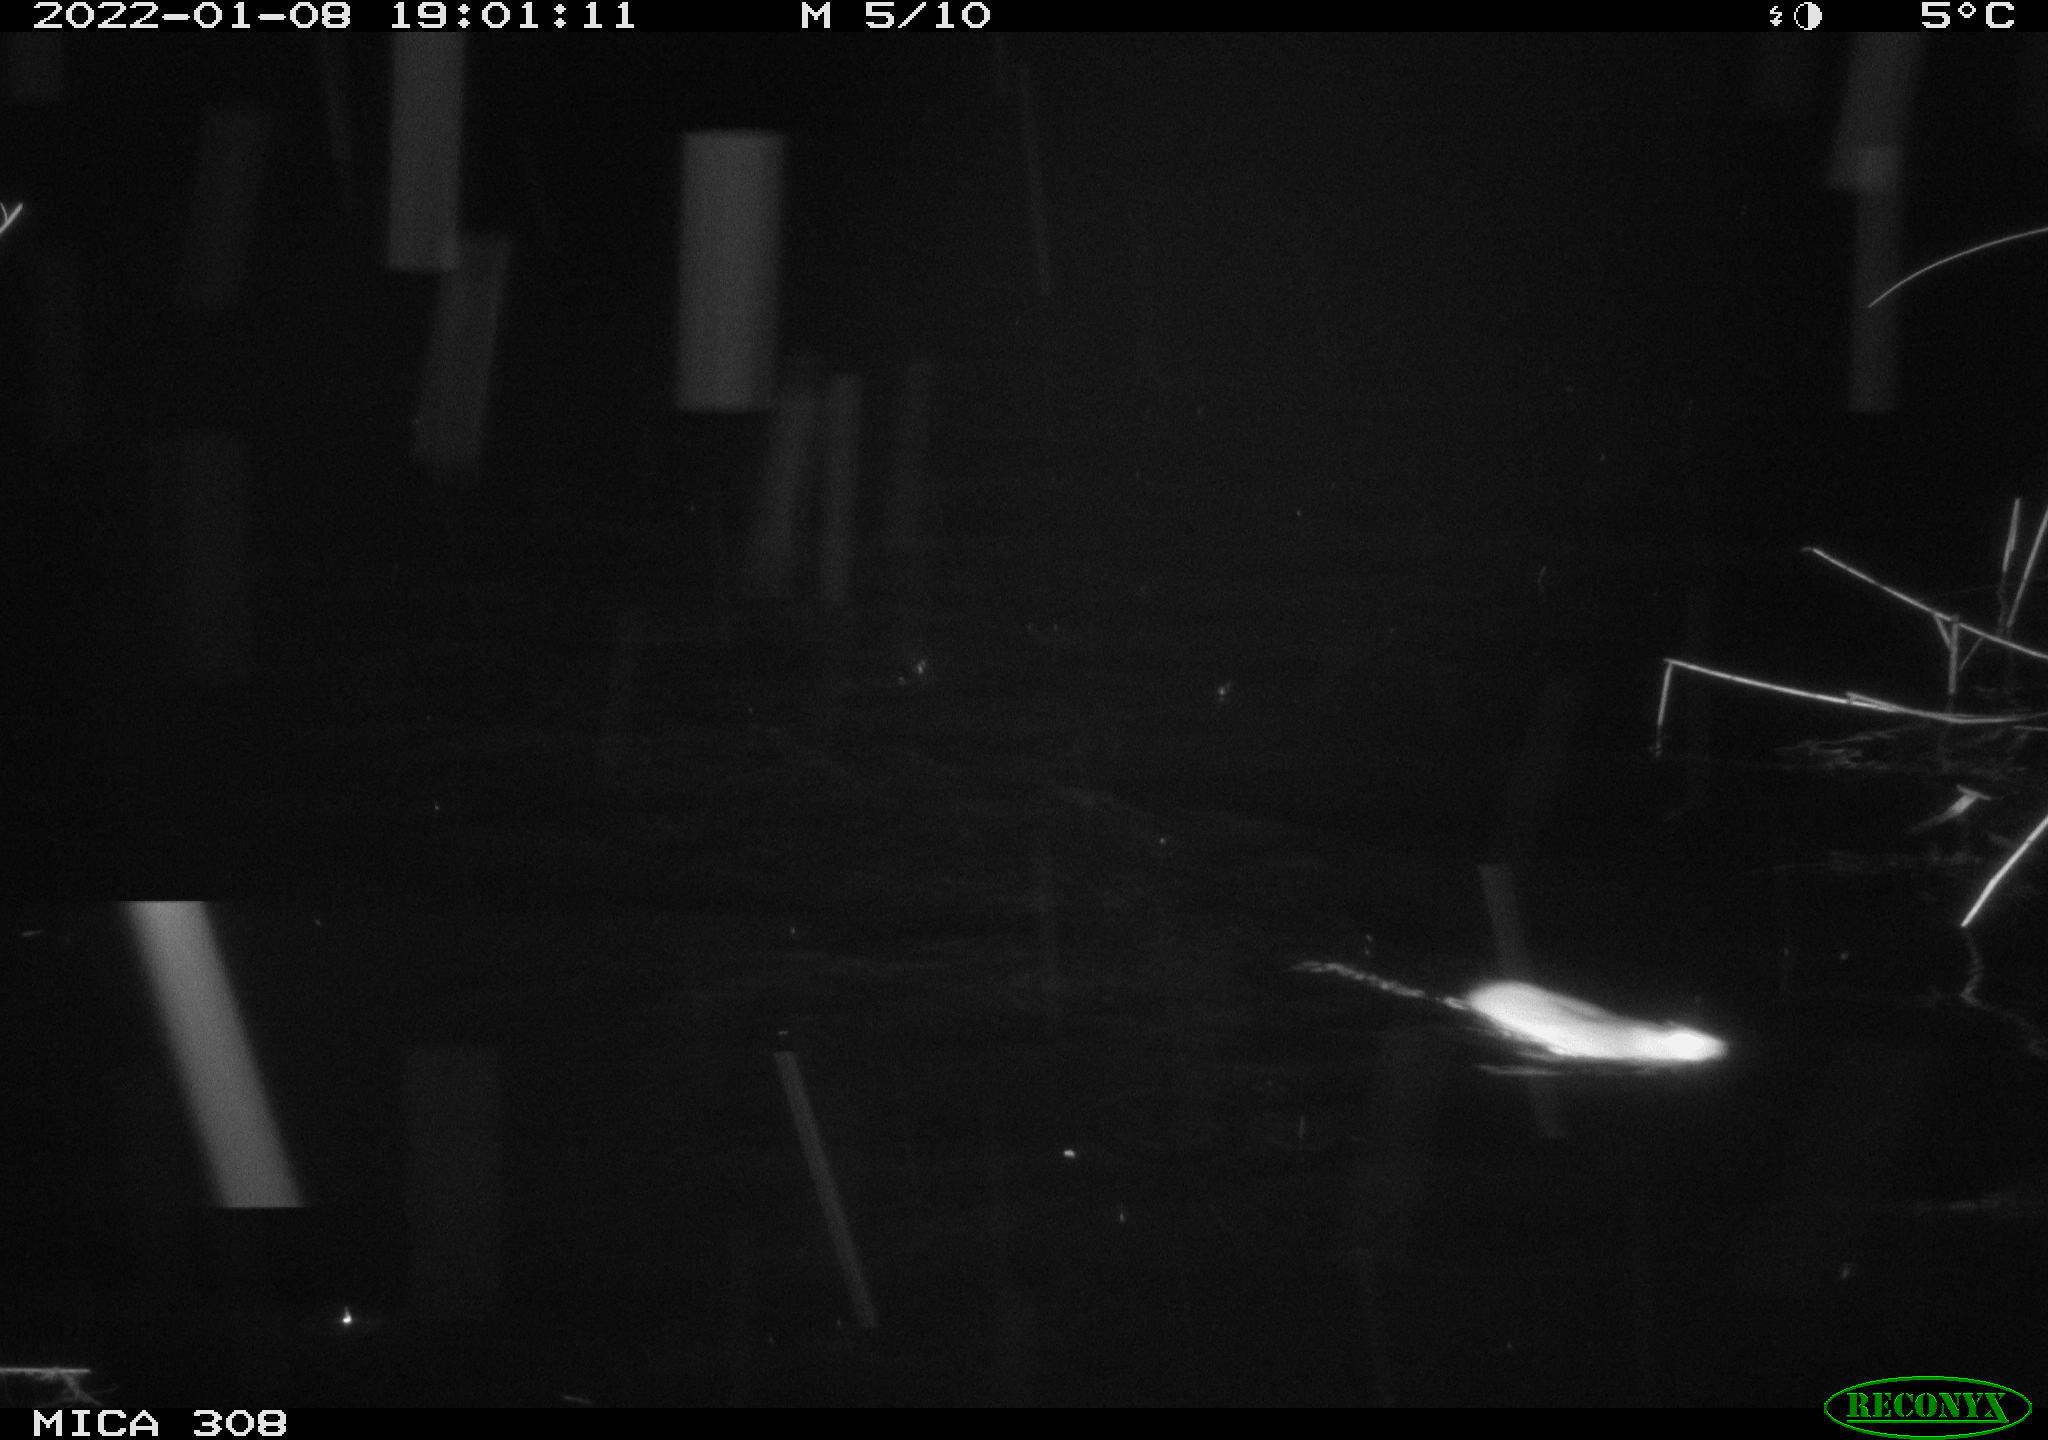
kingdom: Animalia
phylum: Chordata
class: Mammalia
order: Rodentia
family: Muridae
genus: Rattus
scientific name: Rattus norvegicus
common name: Brown rat
